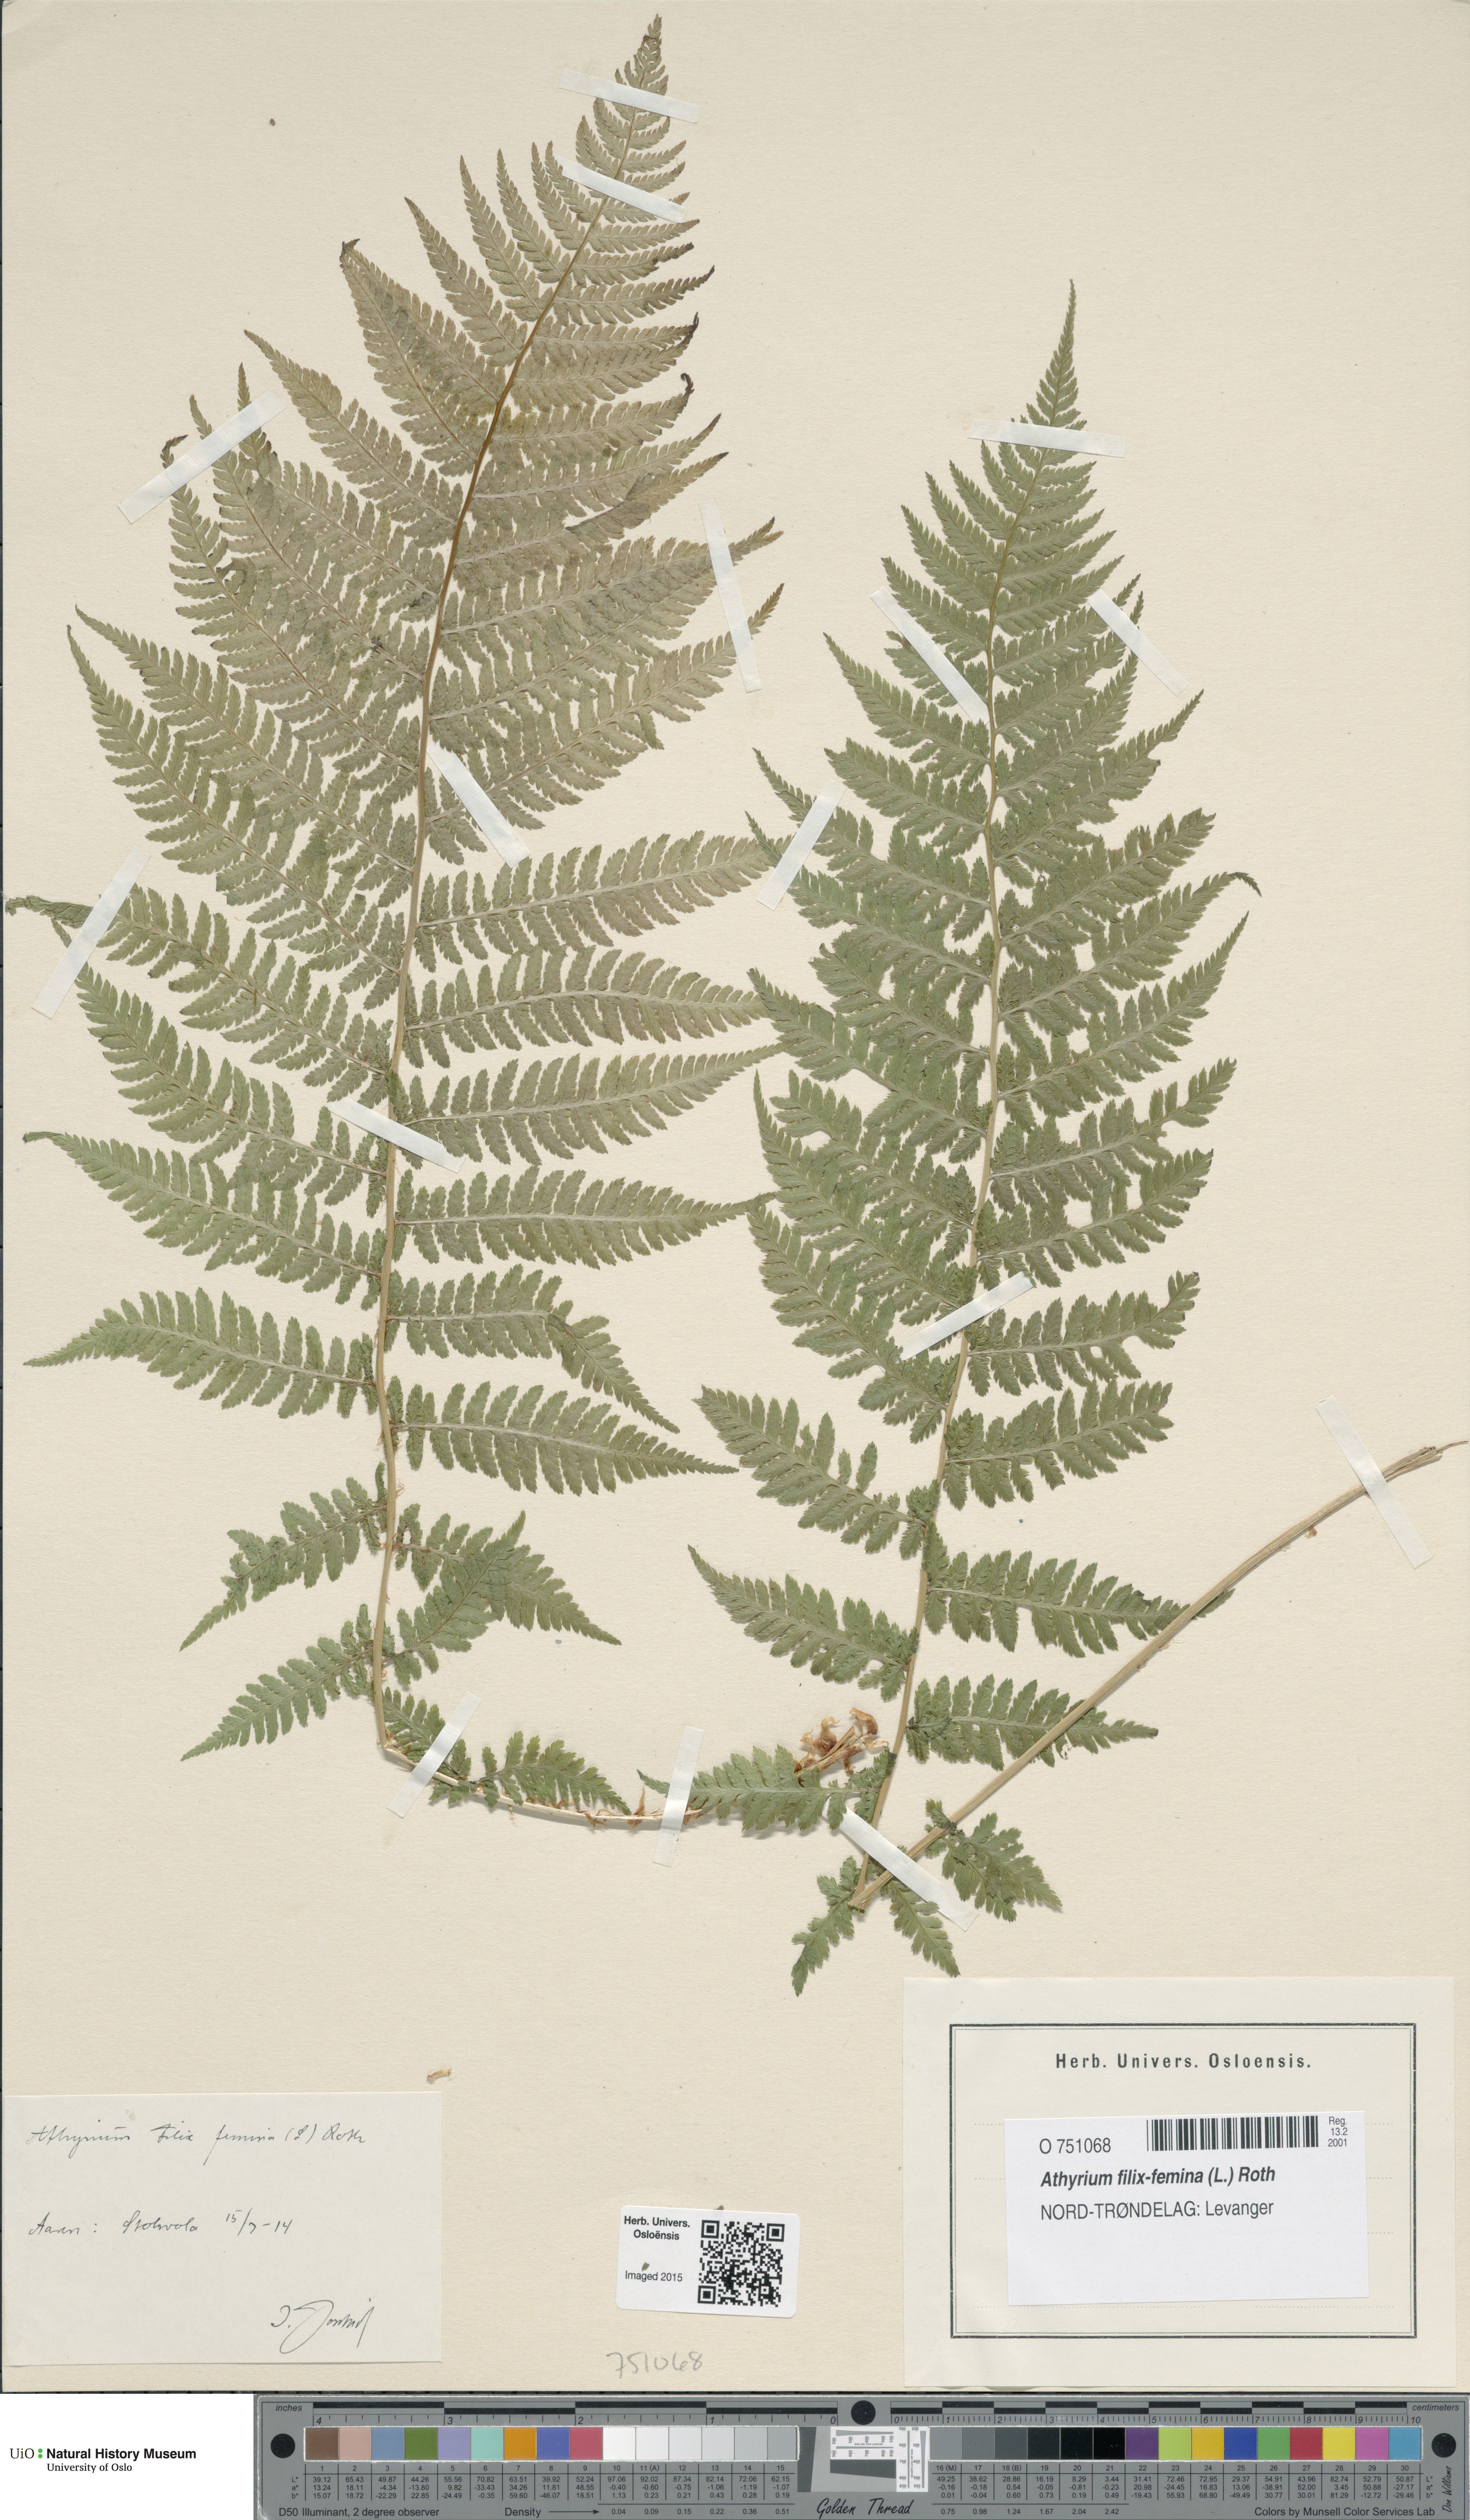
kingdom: Plantae
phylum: Tracheophyta
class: Polypodiopsida
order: Polypodiales
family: Athyriaceae
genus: Athyrium
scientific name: Athyrium filix-femina
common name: Lady fern
